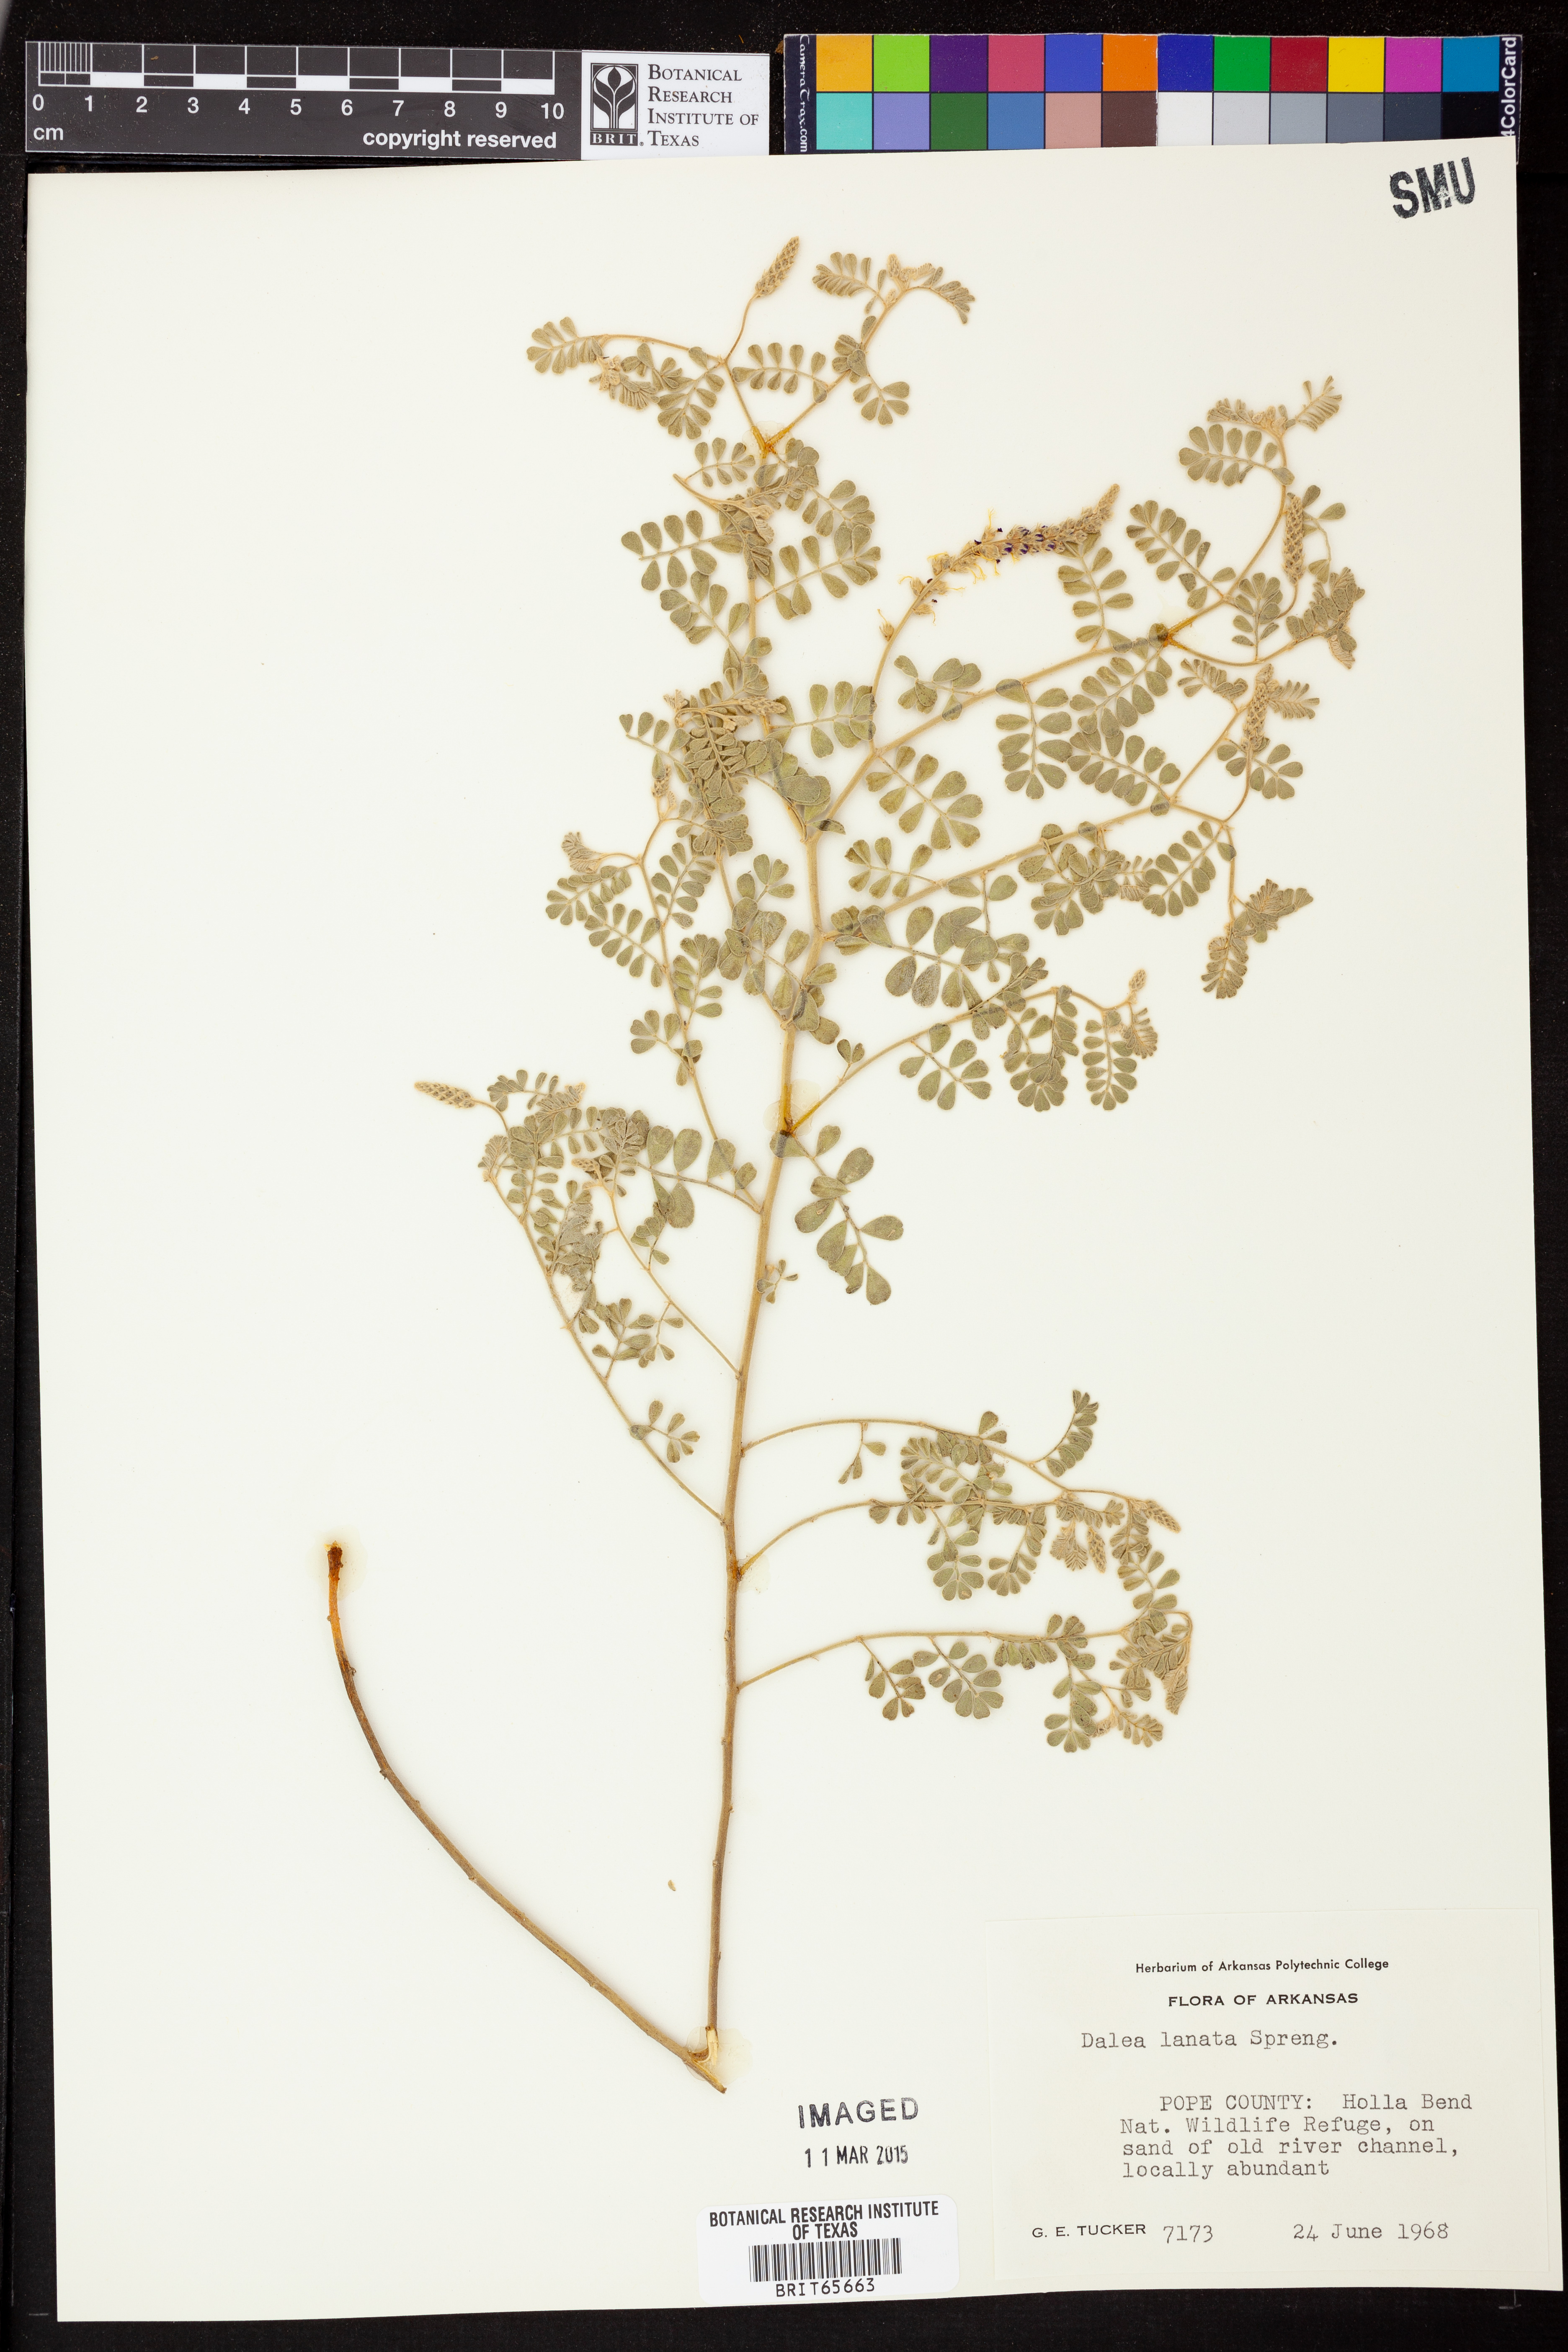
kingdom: Plantae
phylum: Tracheophyta
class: Magnoliopsida
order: Fabales
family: Fabaceae
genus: Dalea
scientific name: Dalea lanata
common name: Woolly dalea
